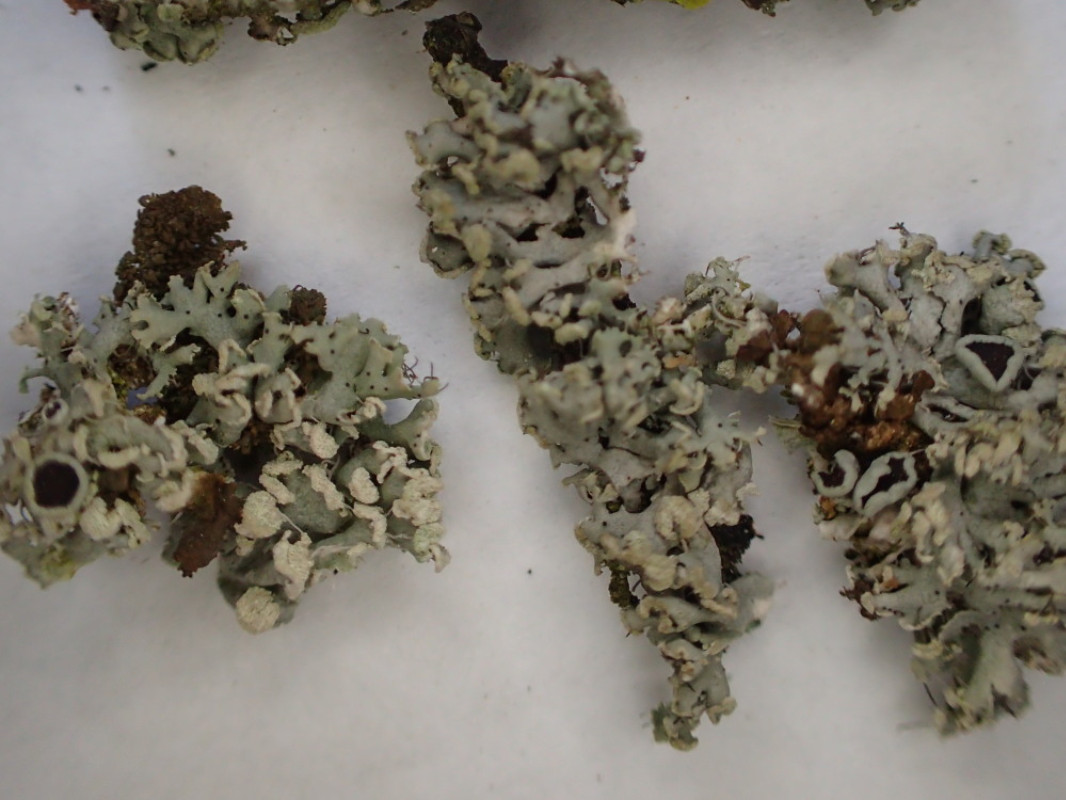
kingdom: Fungi
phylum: Ascomycota
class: Lecanoromycetes
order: Caliciales
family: Physciaceae
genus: Physcia
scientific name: Physcia tenella
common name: spæd rosetlav
